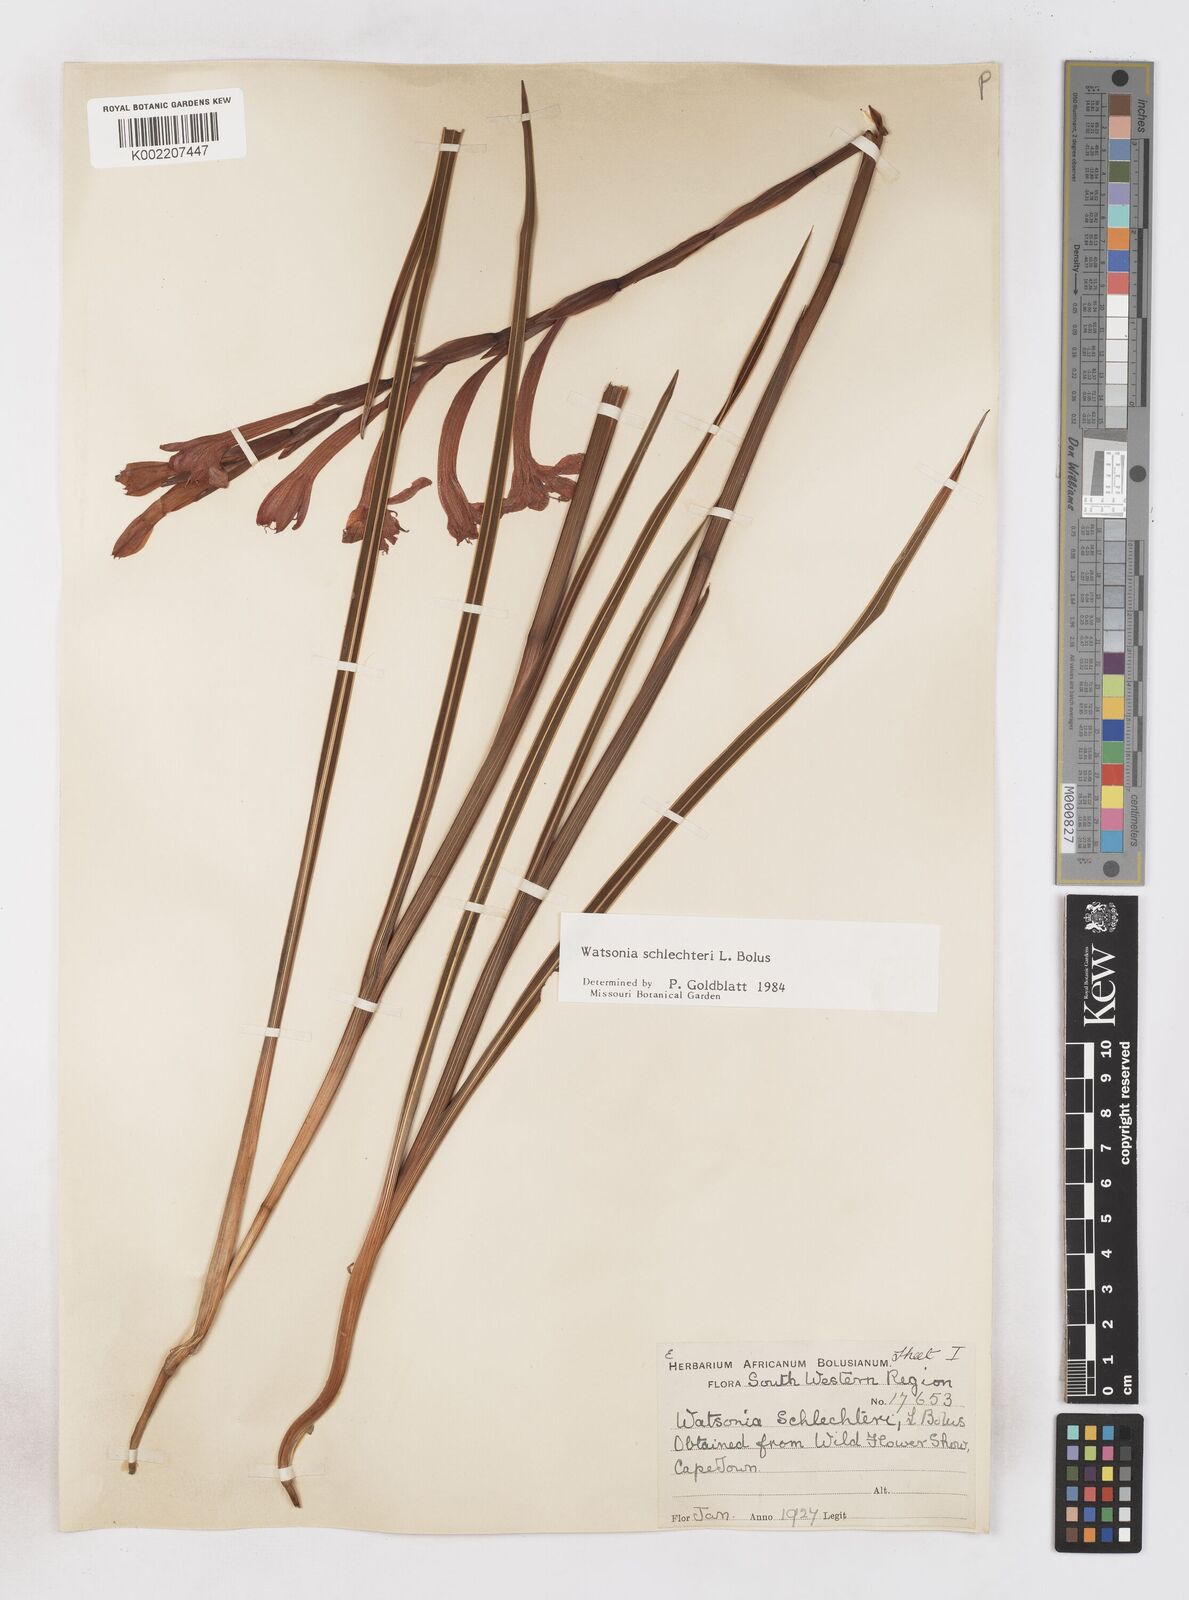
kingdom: Plantae
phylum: Tracheophyta
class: Liliopsida
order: Asparagales
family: Iridaceae
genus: Watsonia
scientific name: Watsonia schlechteri
